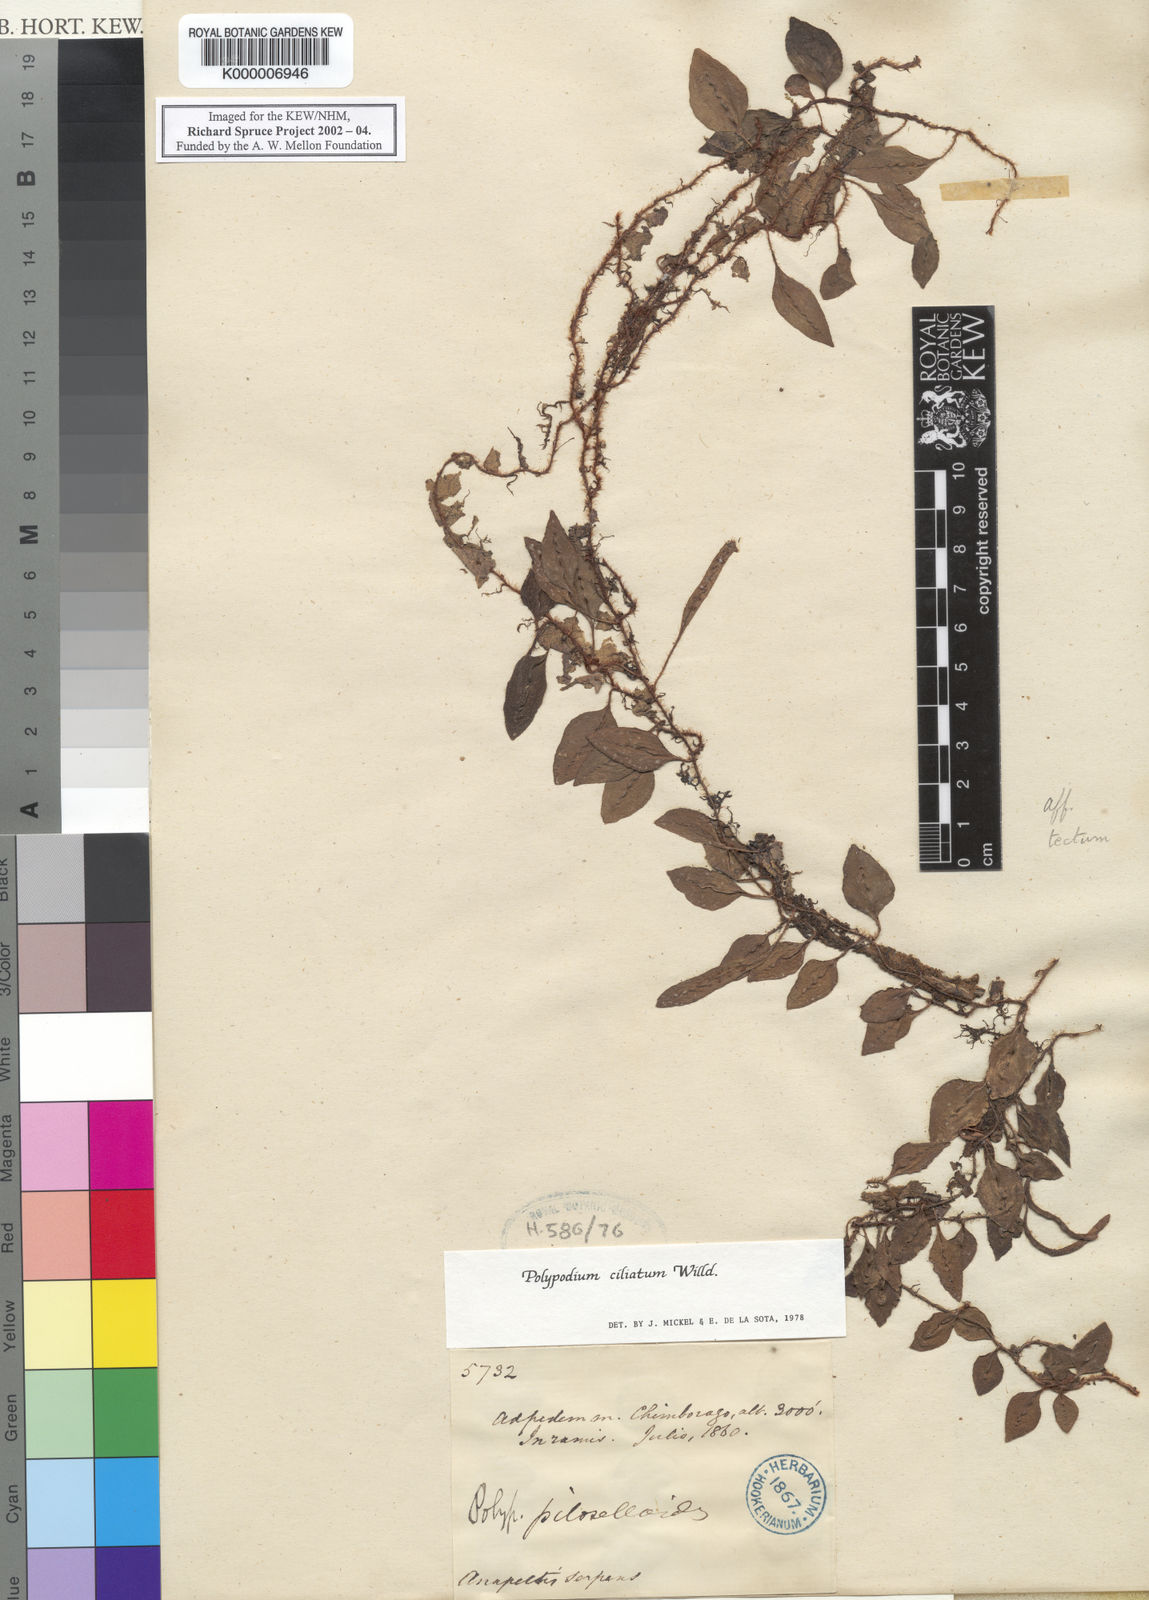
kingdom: Plantae
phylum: Tracheophyta
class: Polypodiopsida
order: Polypodiales
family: Polypodiaceae
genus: Microgramma
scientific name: Microgramma reptans
